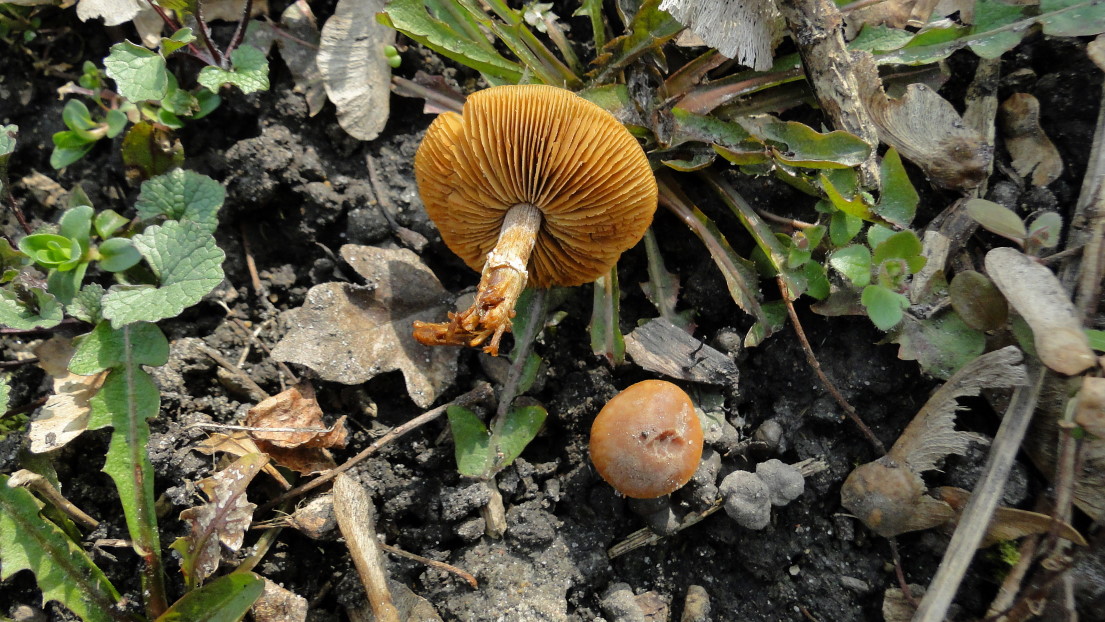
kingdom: Fungi
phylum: Basidiomycota
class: Agaricomycetes
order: Agaricales
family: Bolbitiaceae
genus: Conocybe
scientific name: Conocybe aporos
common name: tidlig dansehat
